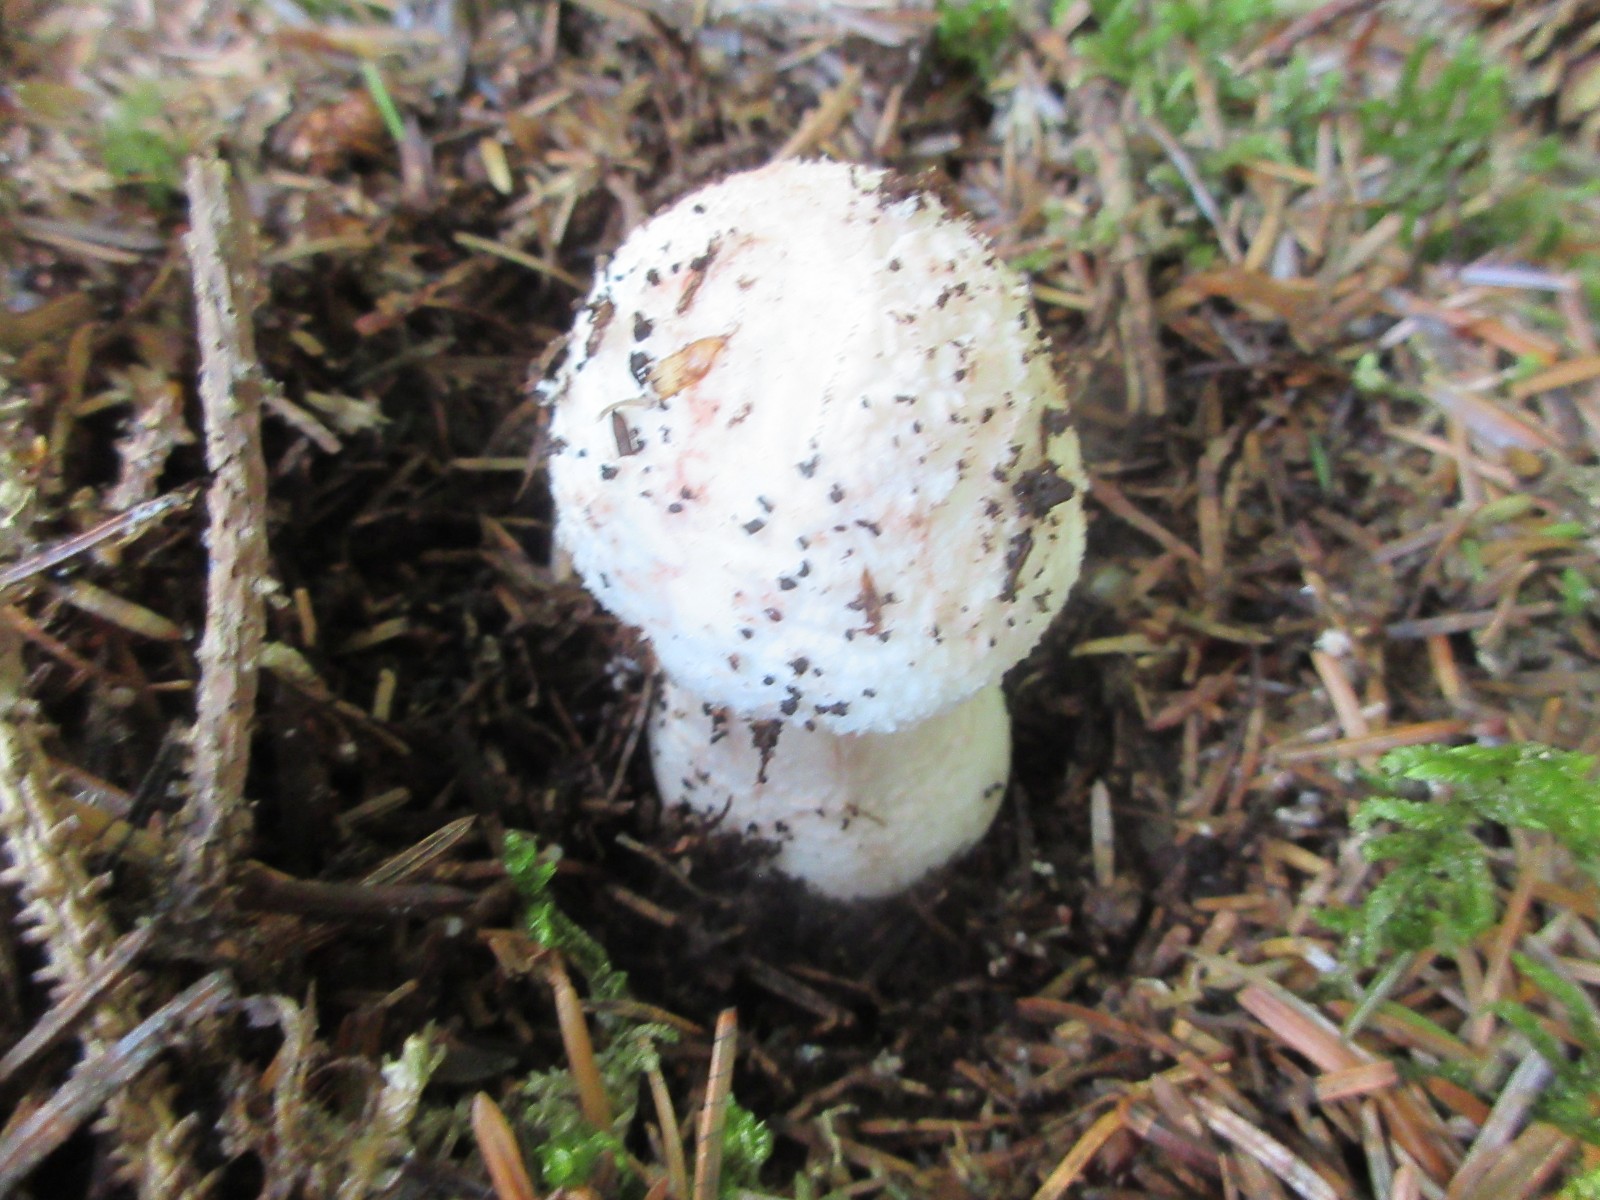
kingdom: Fungi
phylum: Basidiomycota
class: Agaricomycetes
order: Agaricales
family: Amanitaceae
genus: Amanita
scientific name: Amanita rubescens
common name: rødmende fluesvamp
